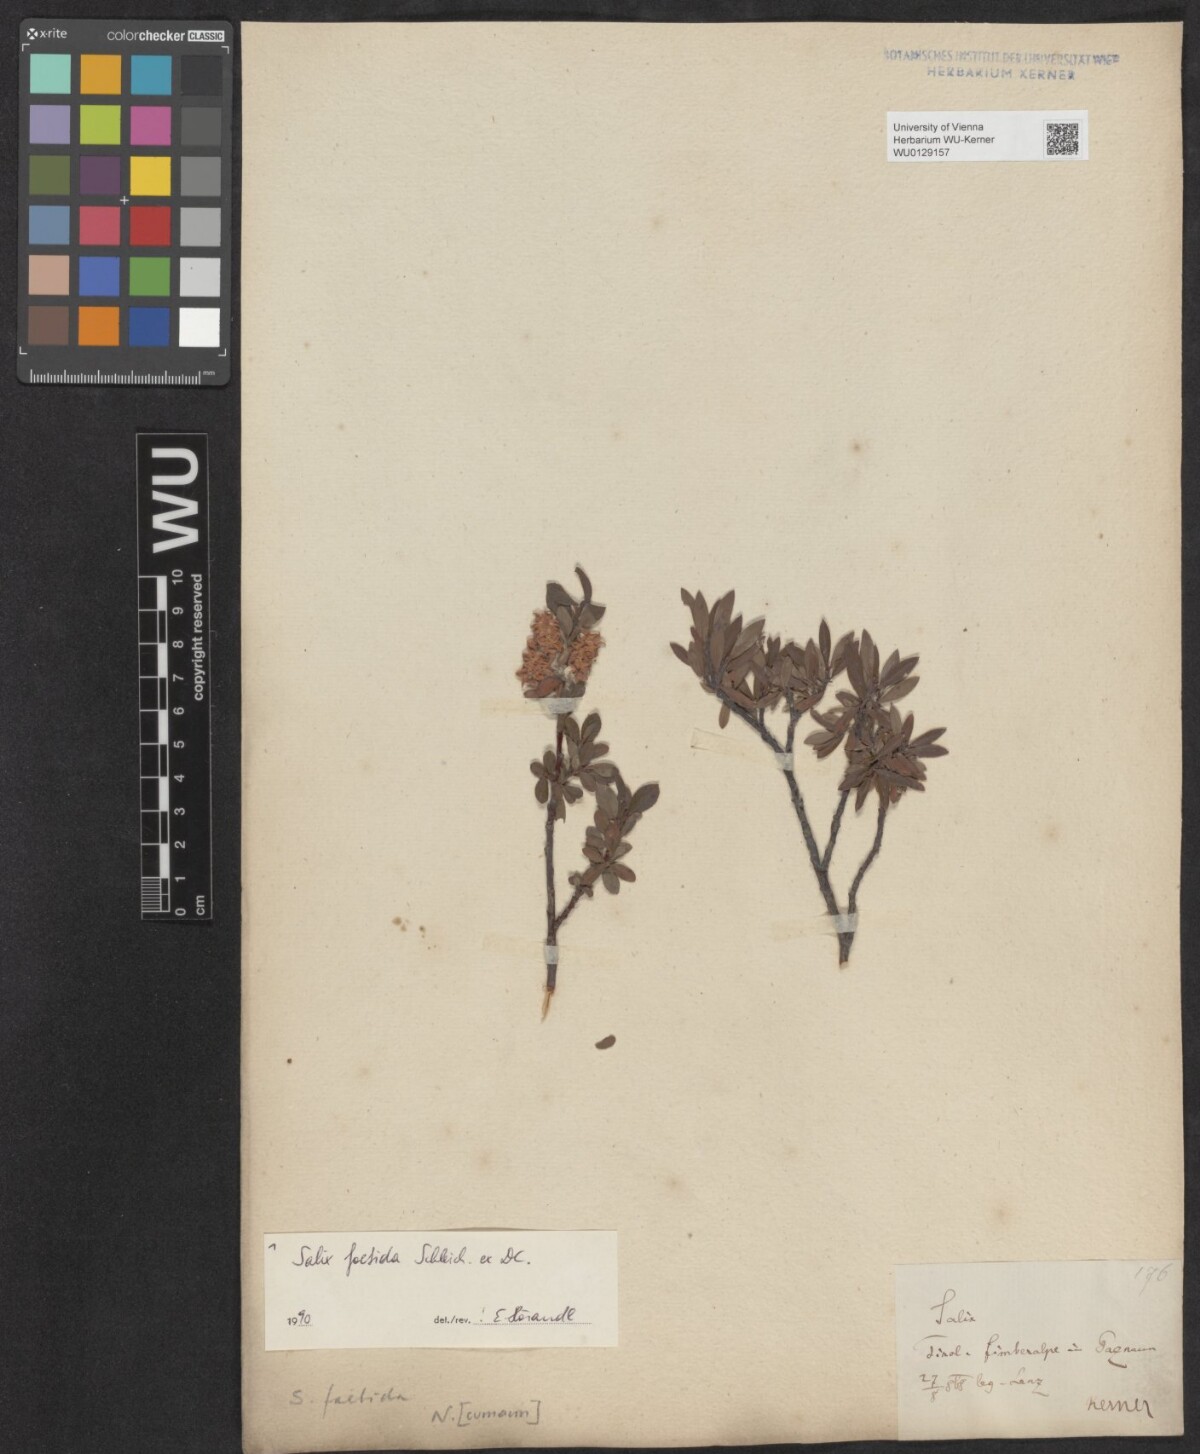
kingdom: Plantae
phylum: Tracheophyta
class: Magnoliopsida
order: Malpighiales
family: Salicaceae
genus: Salix
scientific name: Salix foetida
